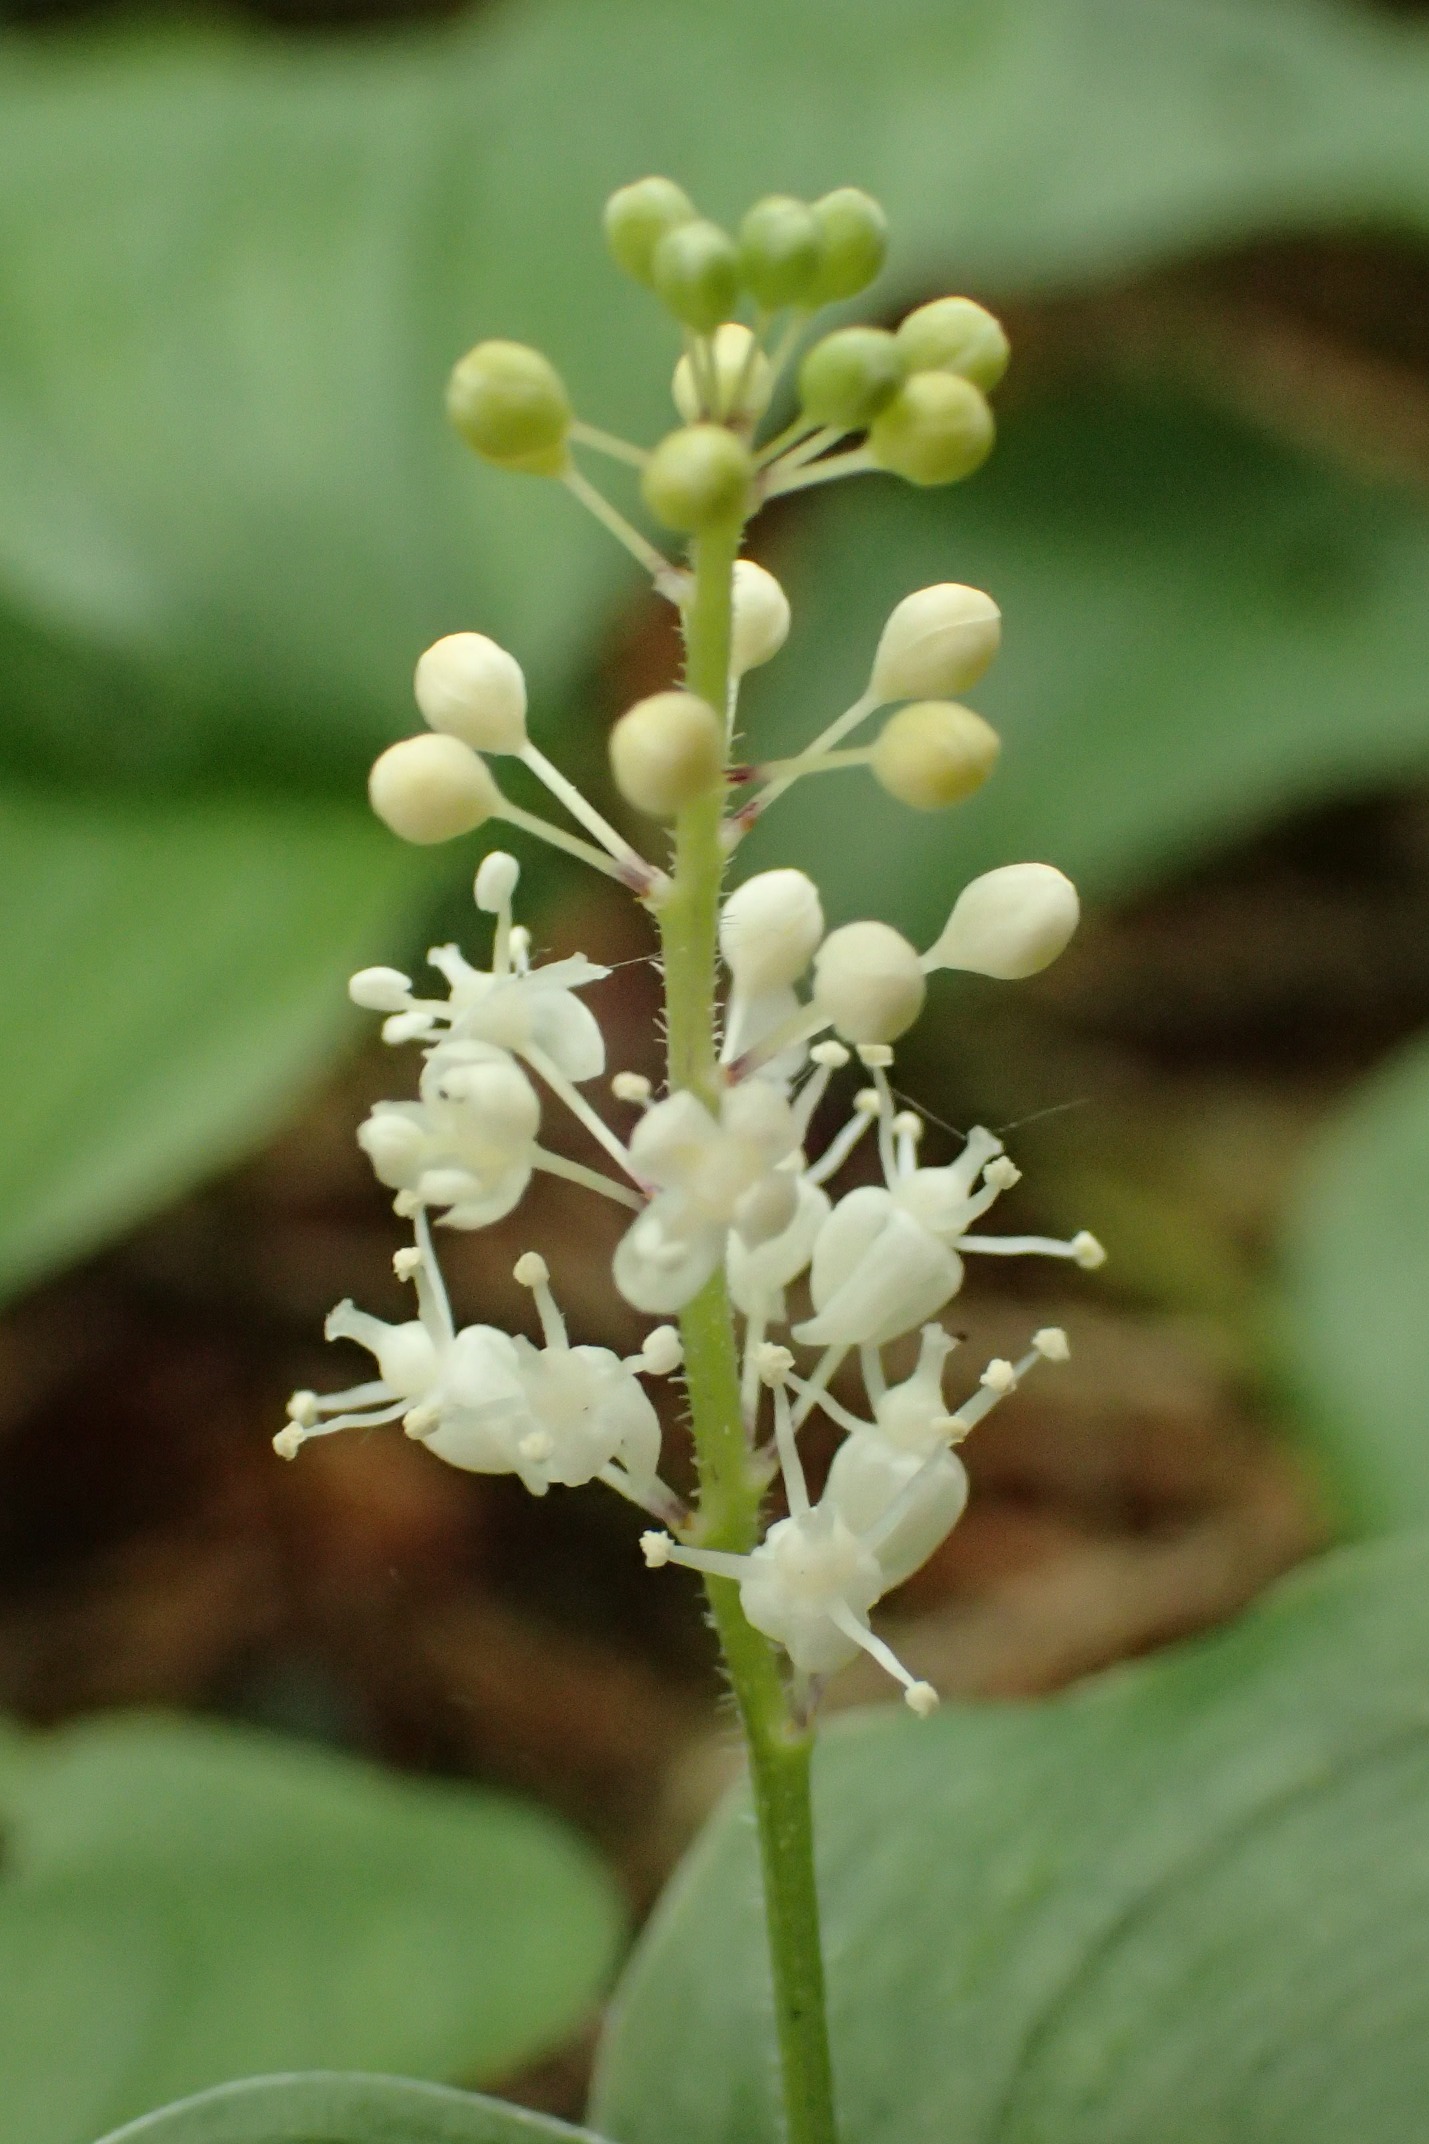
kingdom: Plantae
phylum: Tracheophyta
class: Liliopsida
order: Asparagales
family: Asparagaceae
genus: Maianthemum
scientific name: Maianthemum bifolium
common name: Majblomst
